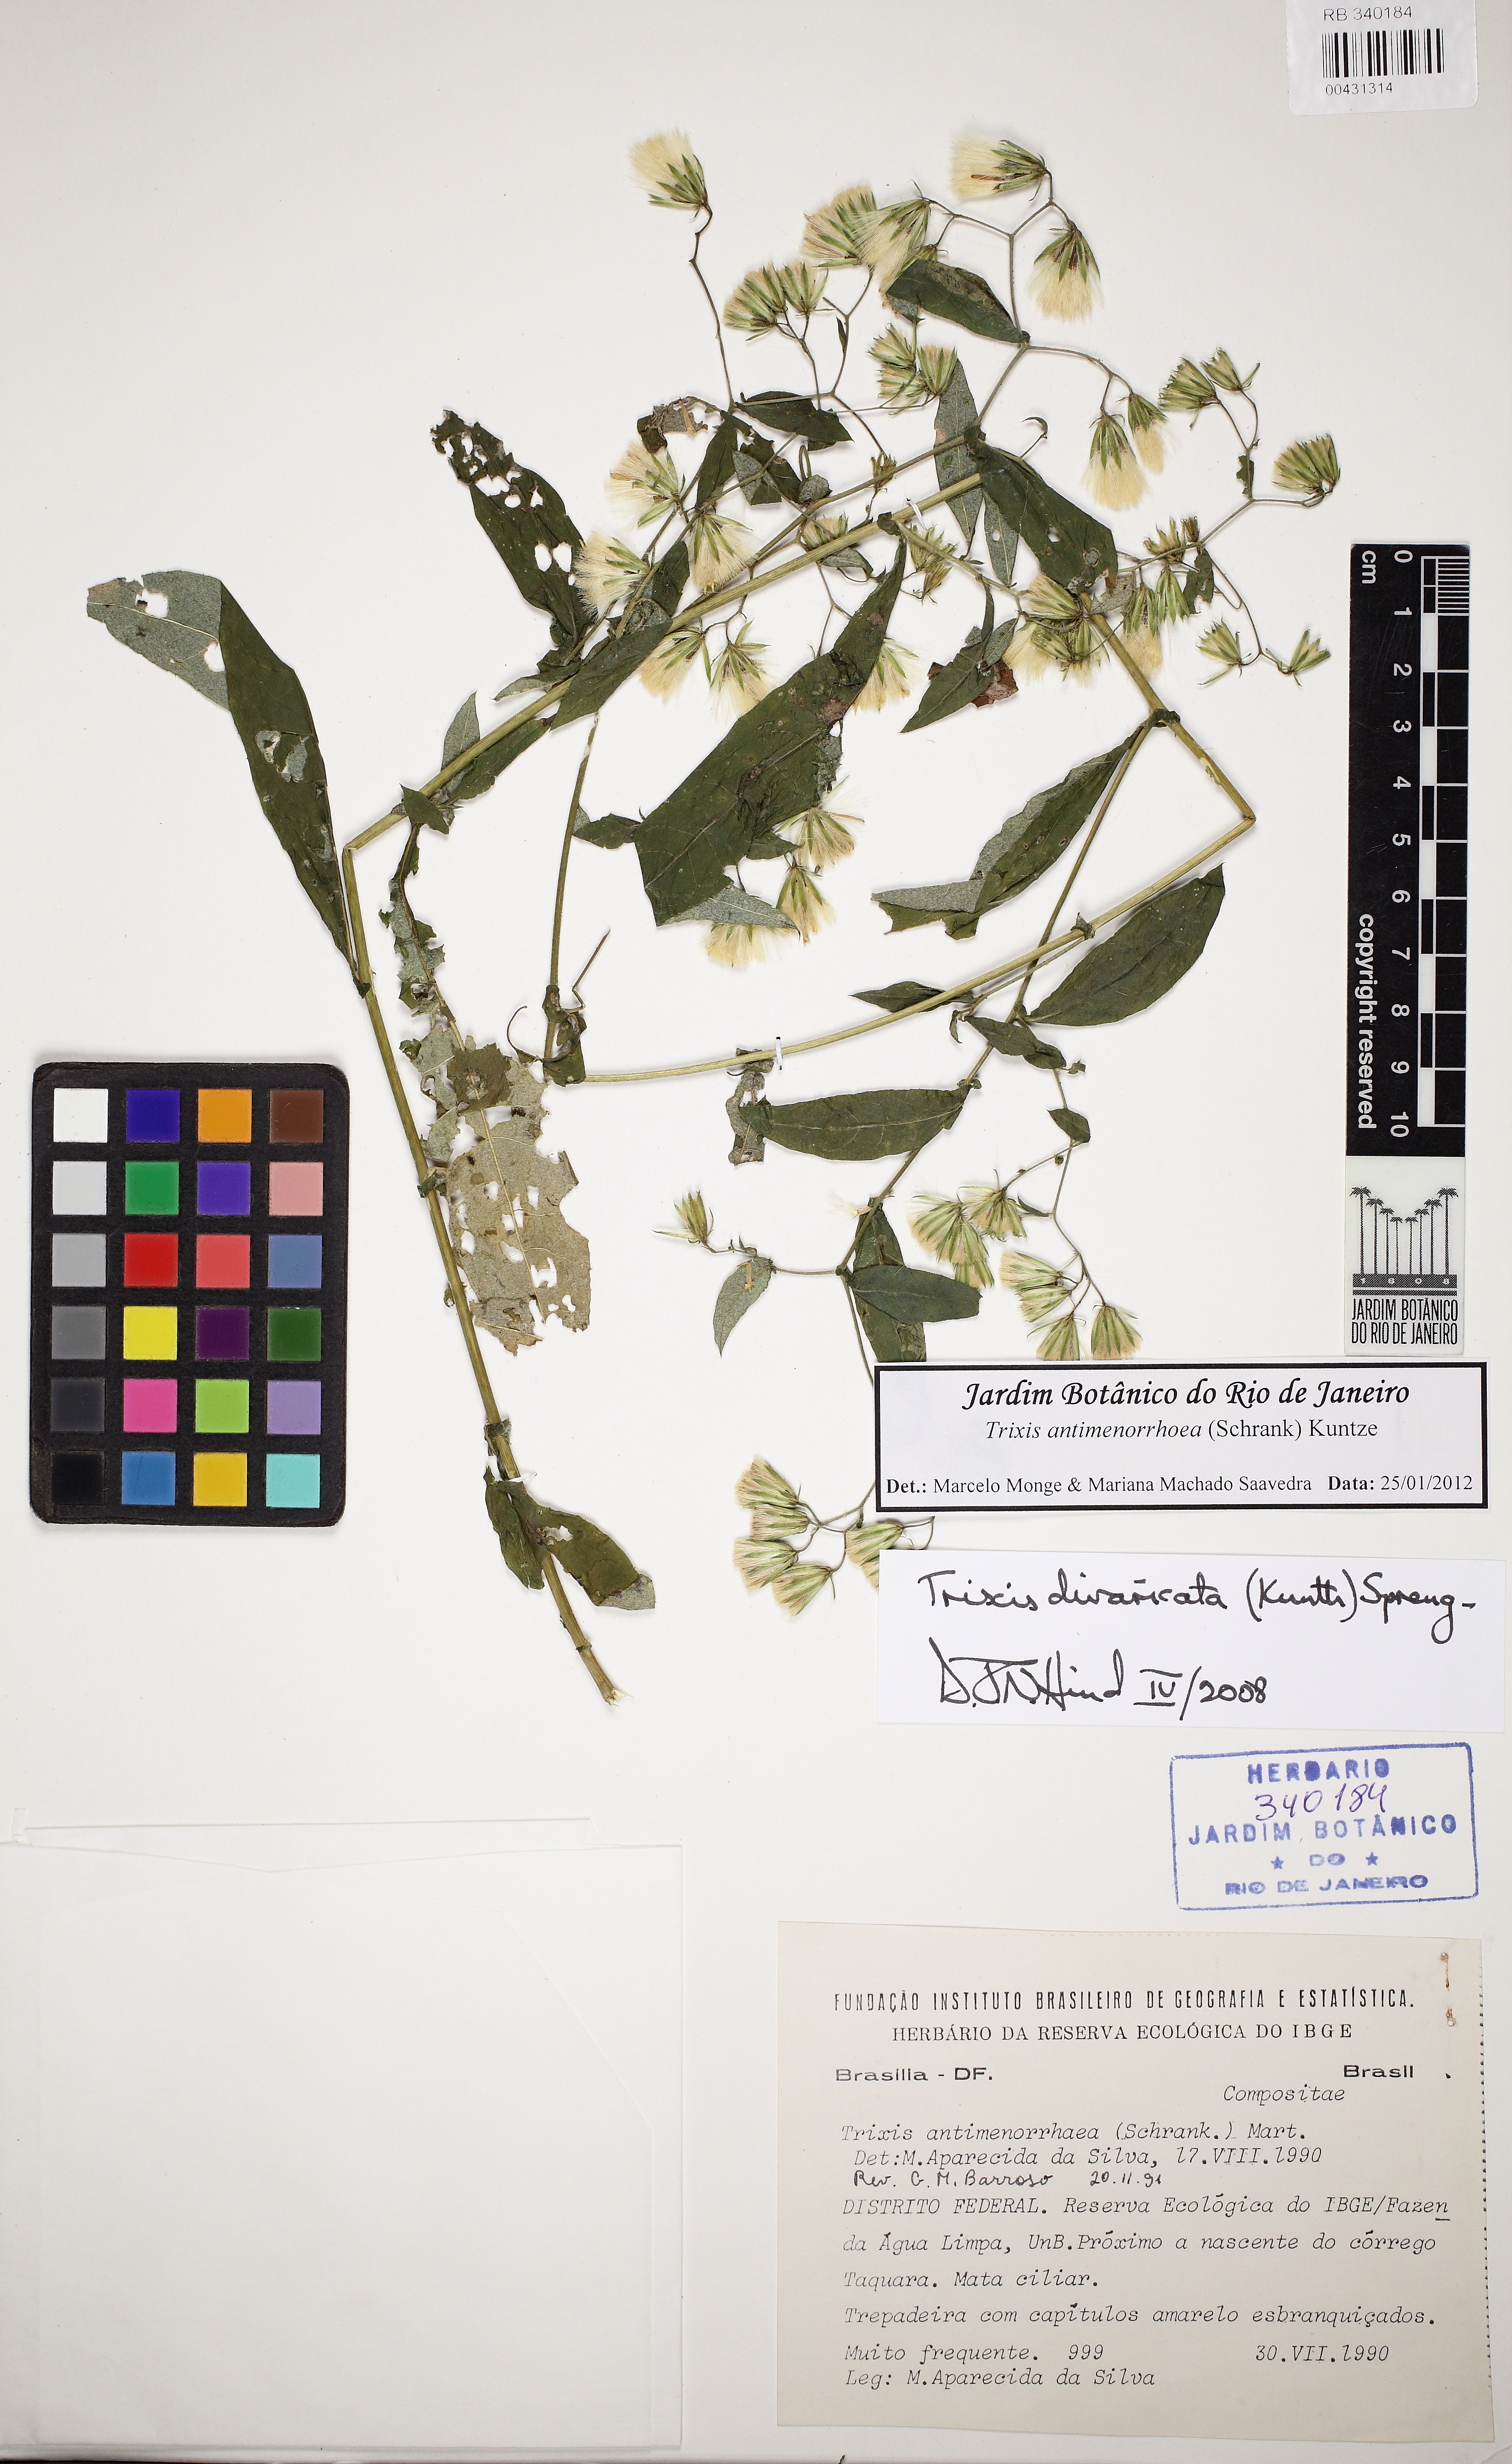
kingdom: Plantae
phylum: Tracheophyta
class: Magnoliopsida
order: Asterales
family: Asteraceae
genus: Trixis
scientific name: Trixis divaricata
